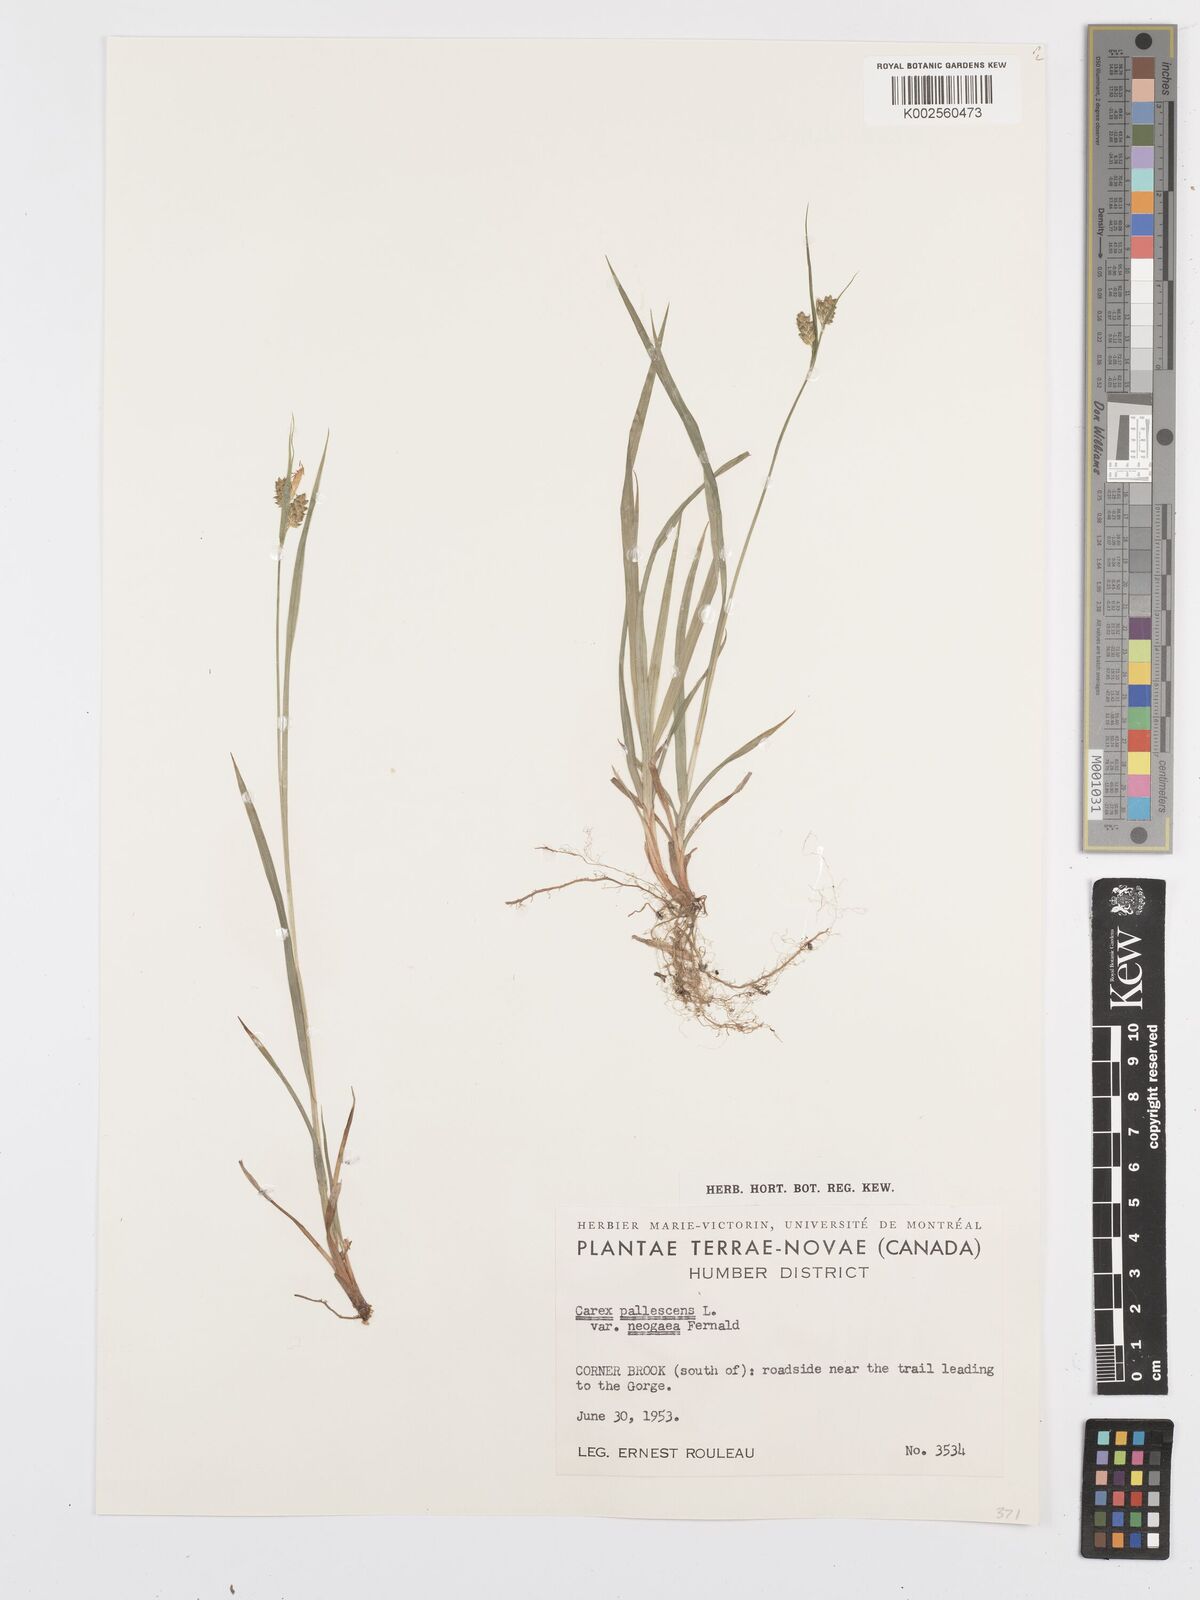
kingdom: Plantae
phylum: Tracheophyta
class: Liliopsida
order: Poales
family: Cyperaceae
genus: Carex
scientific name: Carex pallescens
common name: Pale sedge
